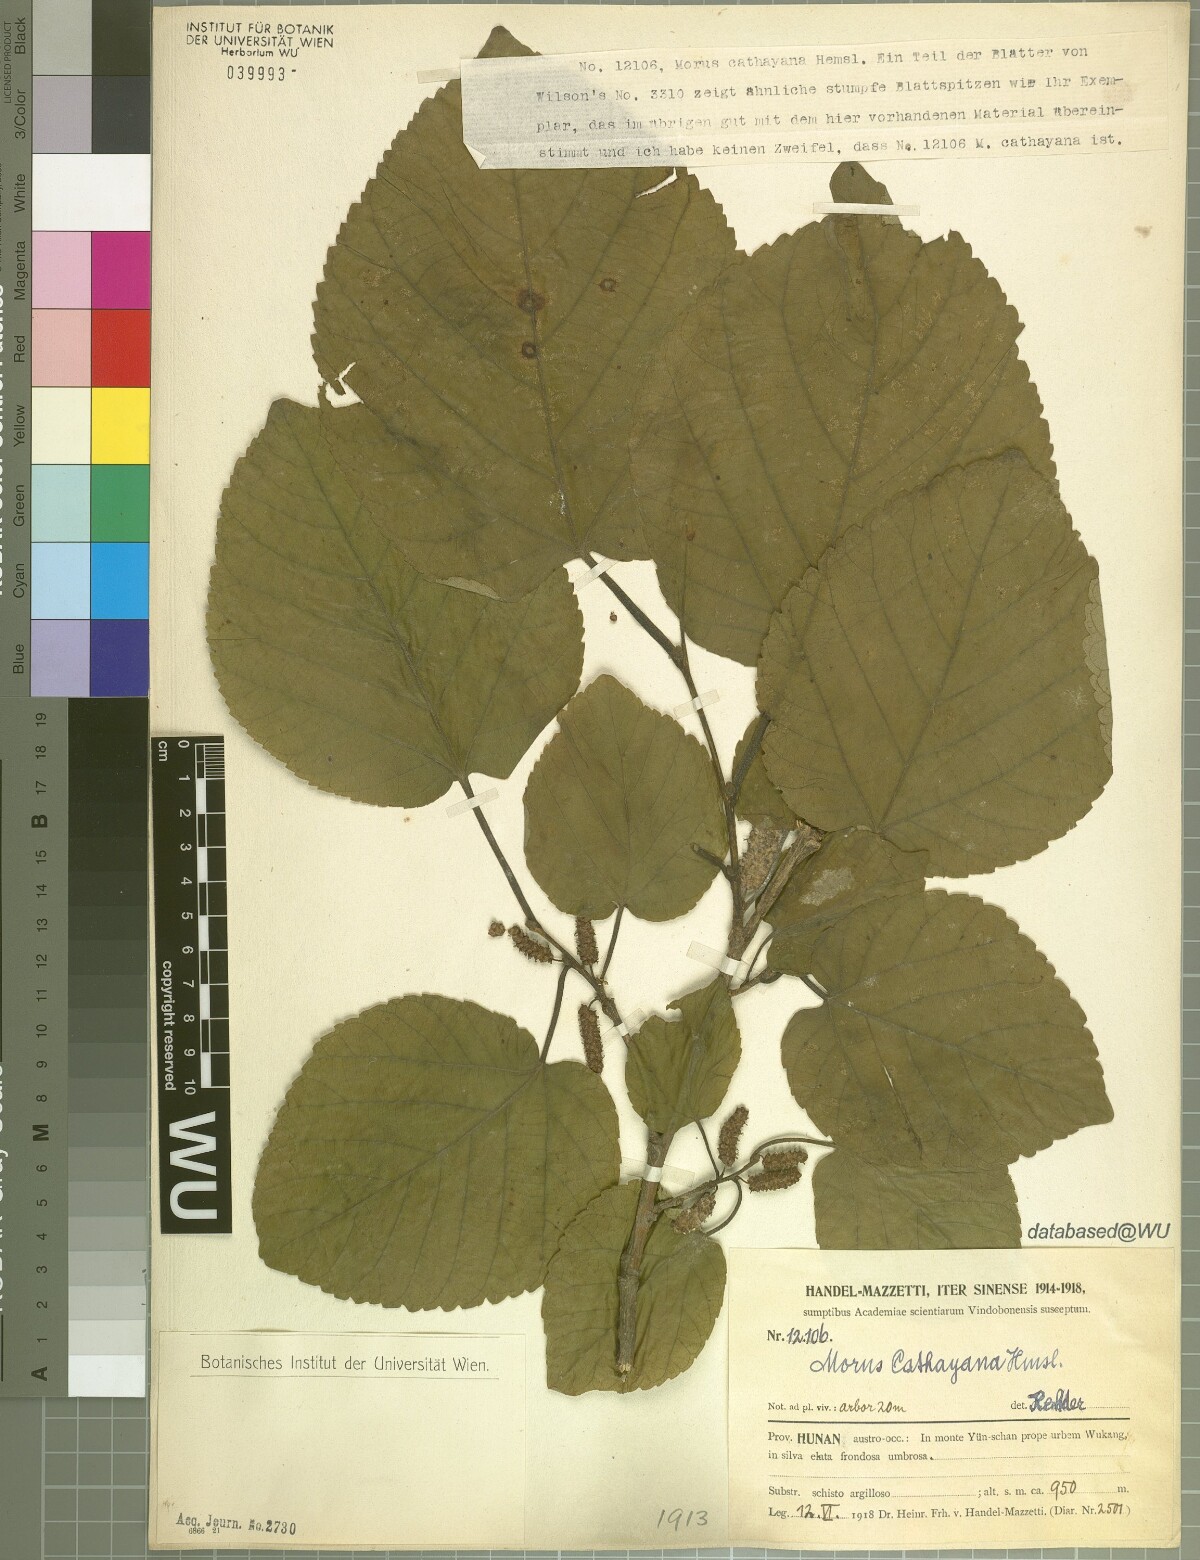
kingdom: Plantae
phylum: Tracheophyta
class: Magnoliopsida
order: Rosales
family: Moraceae
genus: Morus
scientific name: Morus cathayana
